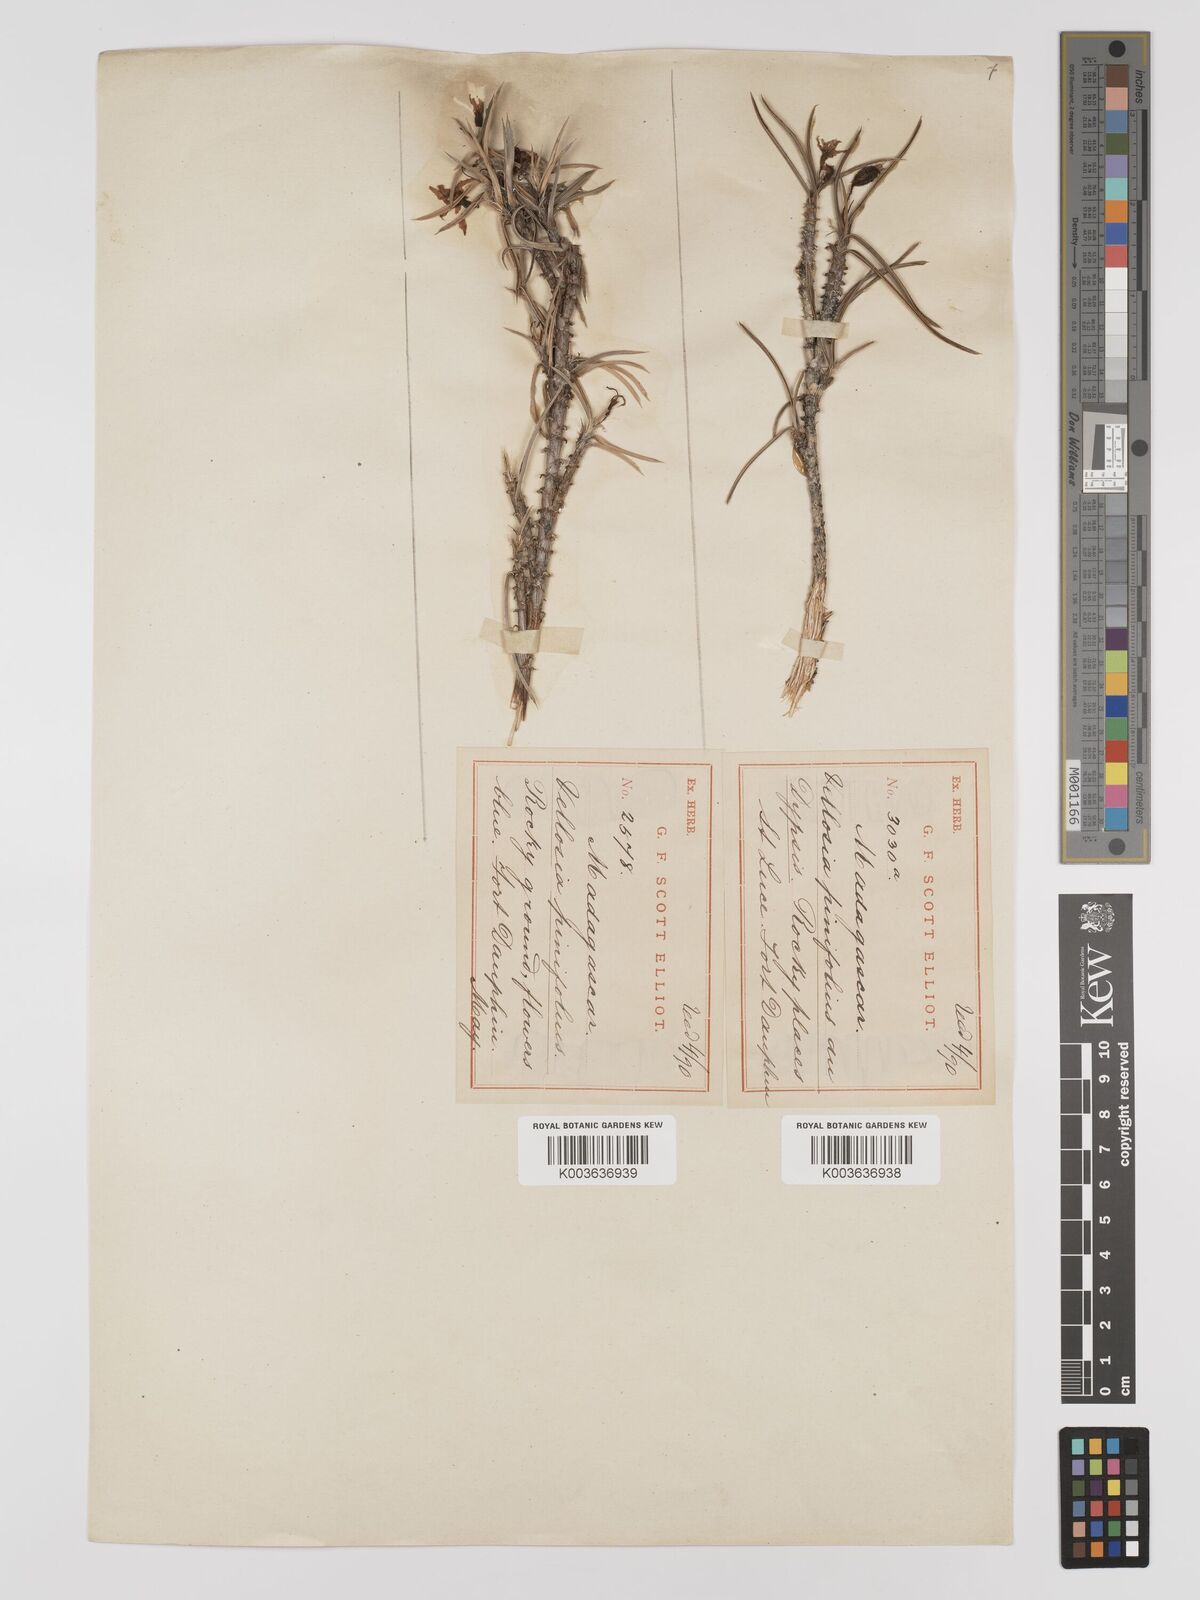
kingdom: Plantae
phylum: Tracheophyta
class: Liliopsida
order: Pandanales
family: Velloziaceae
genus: Xerophyta
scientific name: Xerophyta pinifolia
